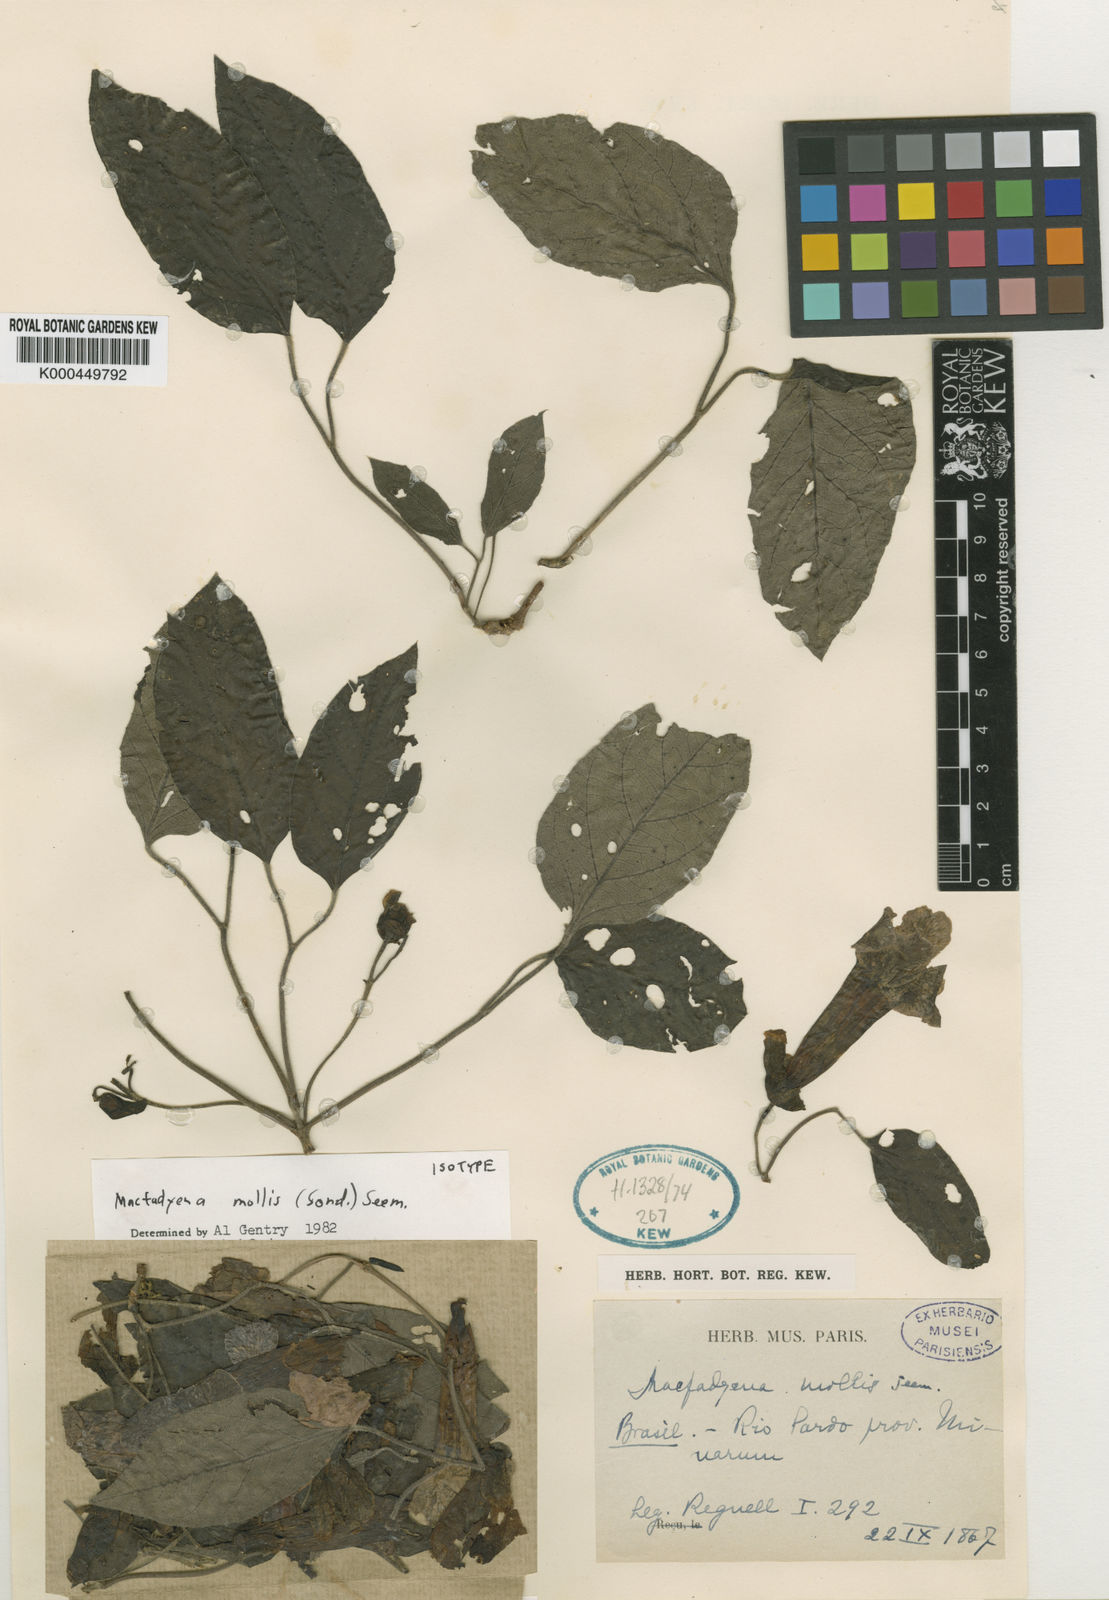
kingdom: Plantae
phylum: Tracheophyta
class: Magnoliopsida
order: Lamiales
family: Bignoniaceae
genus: Dolichandra
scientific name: Dolichandra uncata
